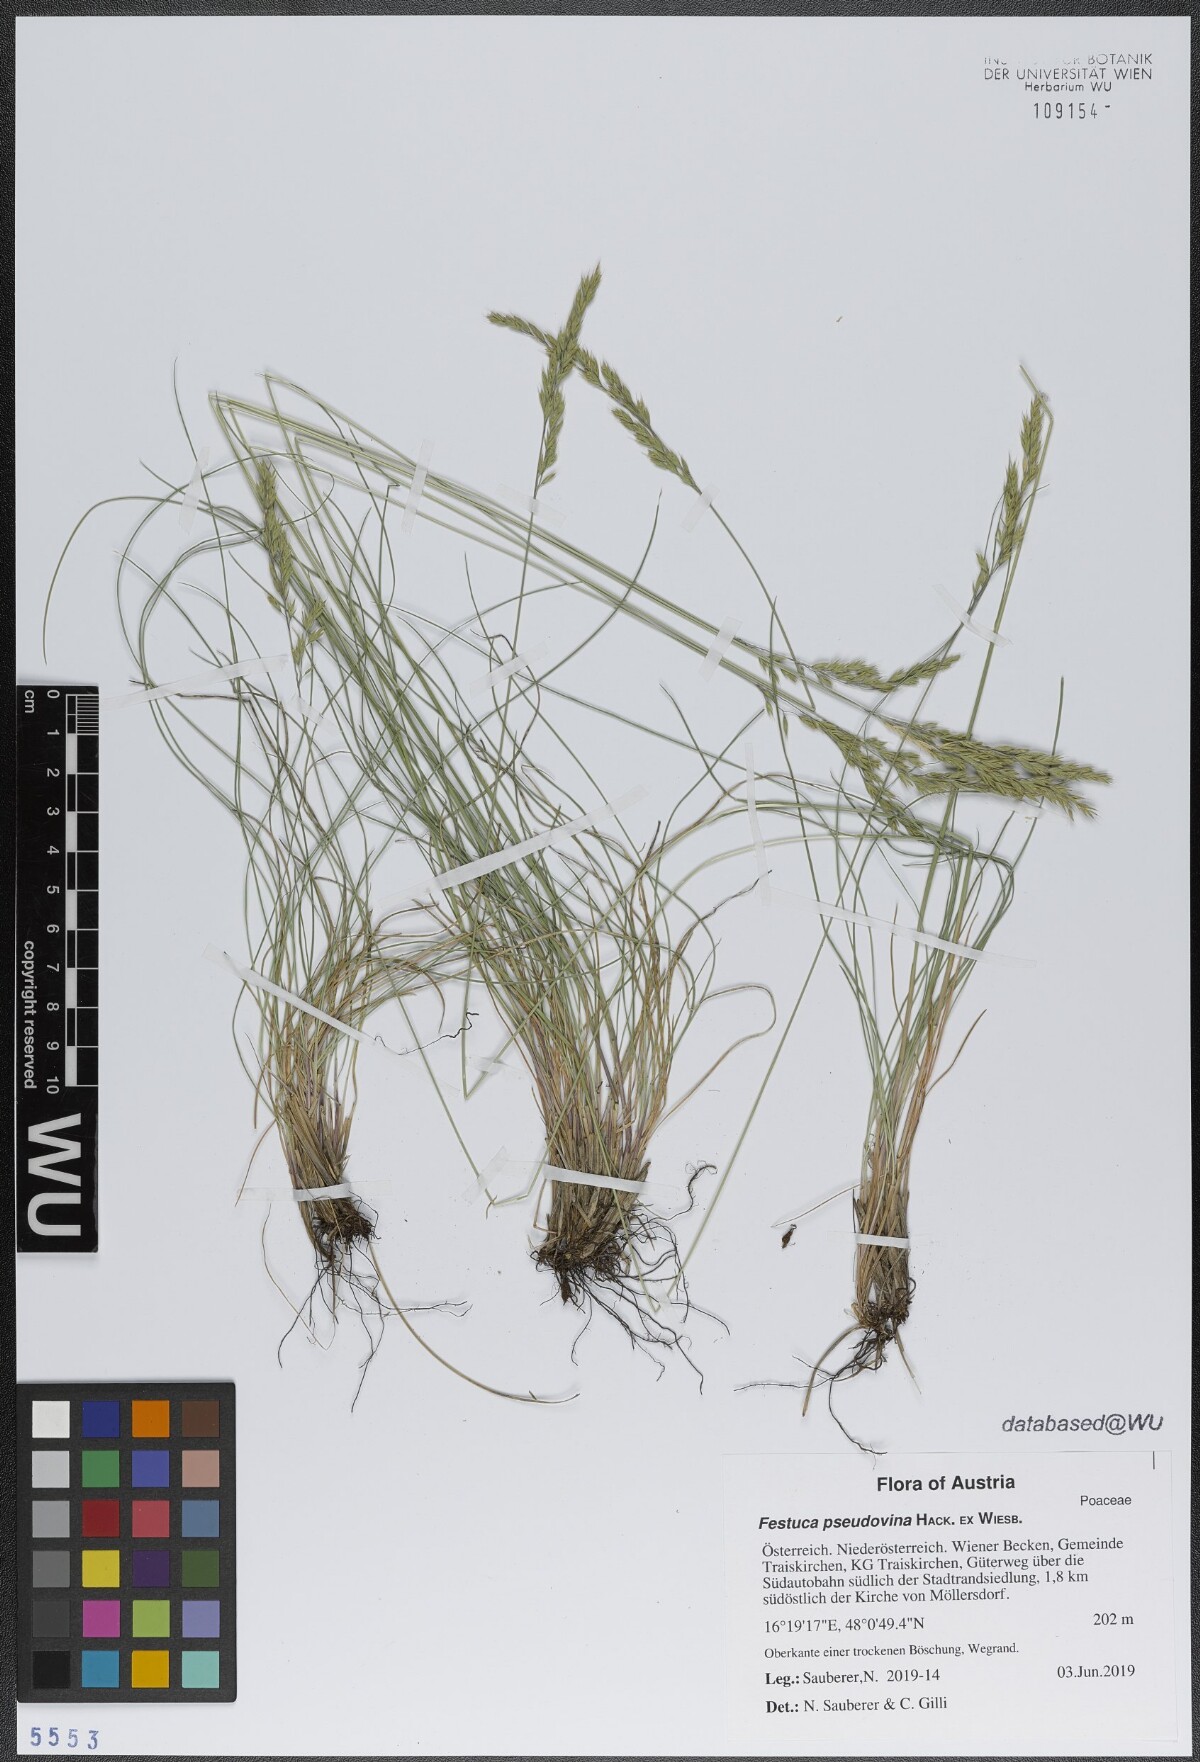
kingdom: Plantae
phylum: Tracheophyta
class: Liliopsida
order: Poales
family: Poaceae
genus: Festuca
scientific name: Festuca pulchra
